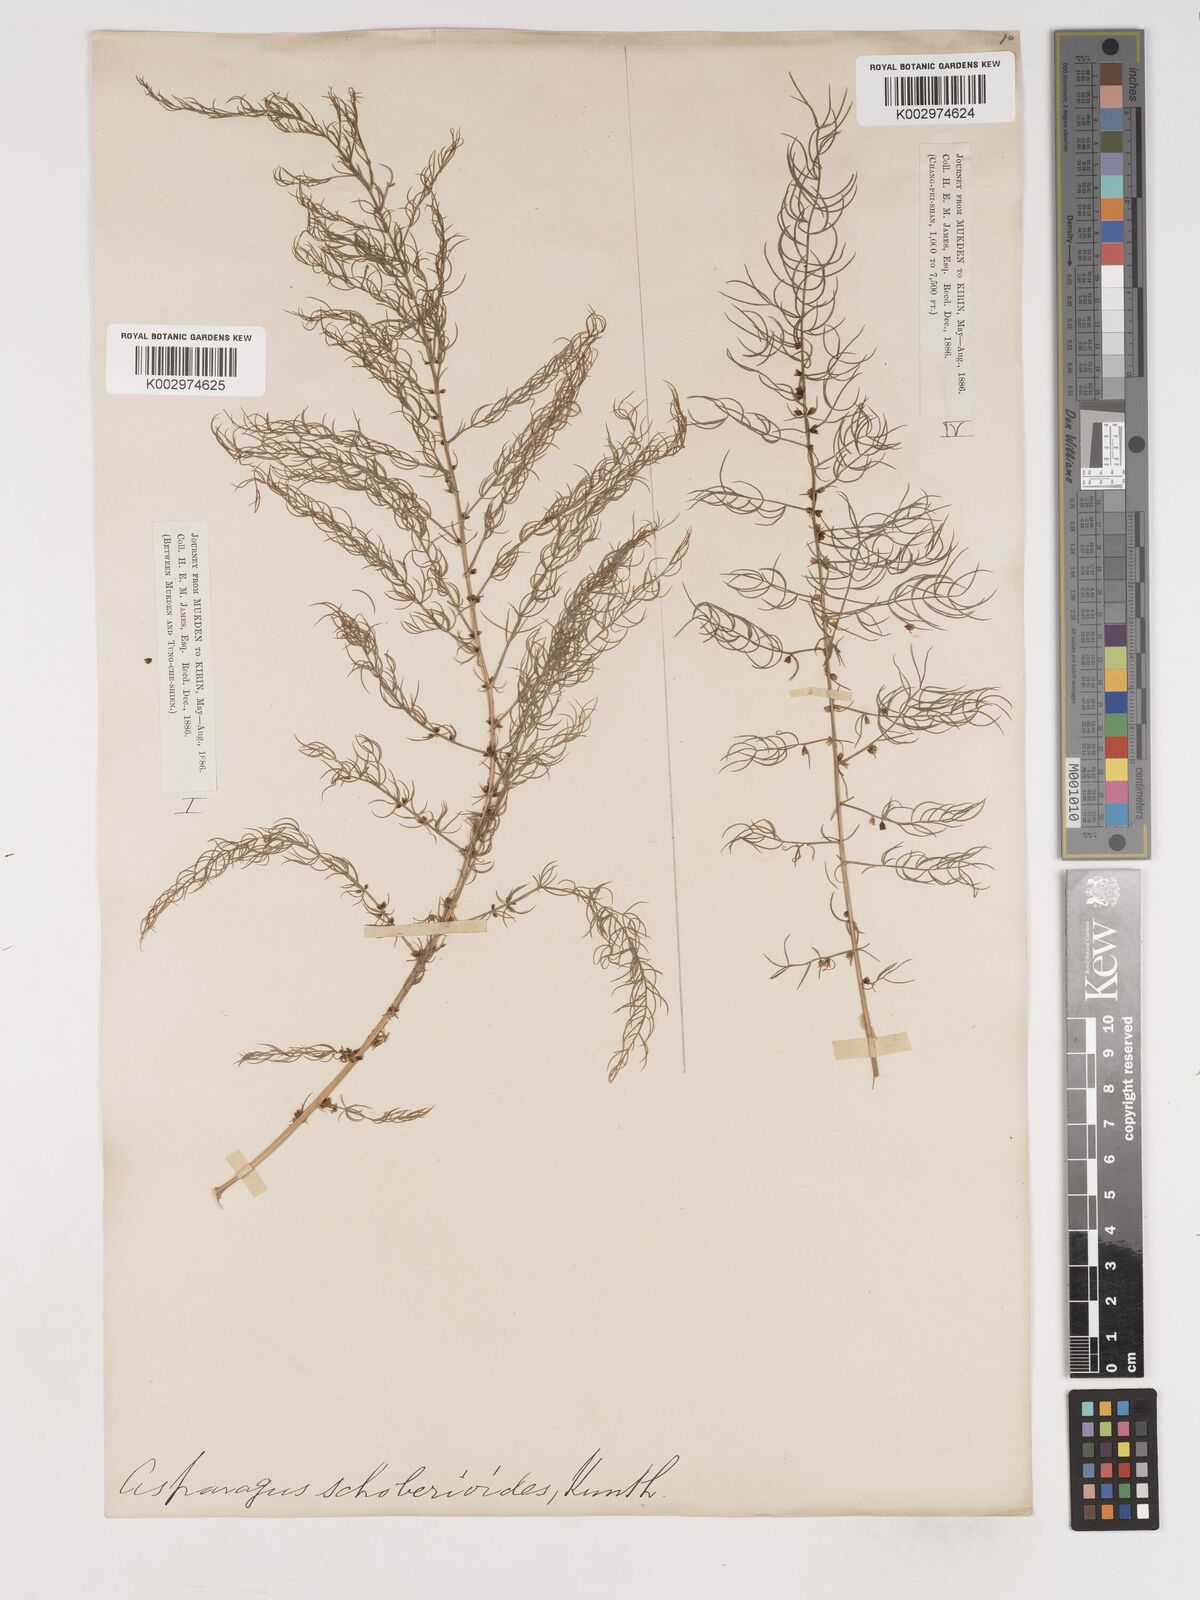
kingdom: Plantae
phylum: Tracheophyta
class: Liliopsida
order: Asparagales
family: Asparagaceae
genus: Asparagus
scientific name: Asparagus schoberioides
